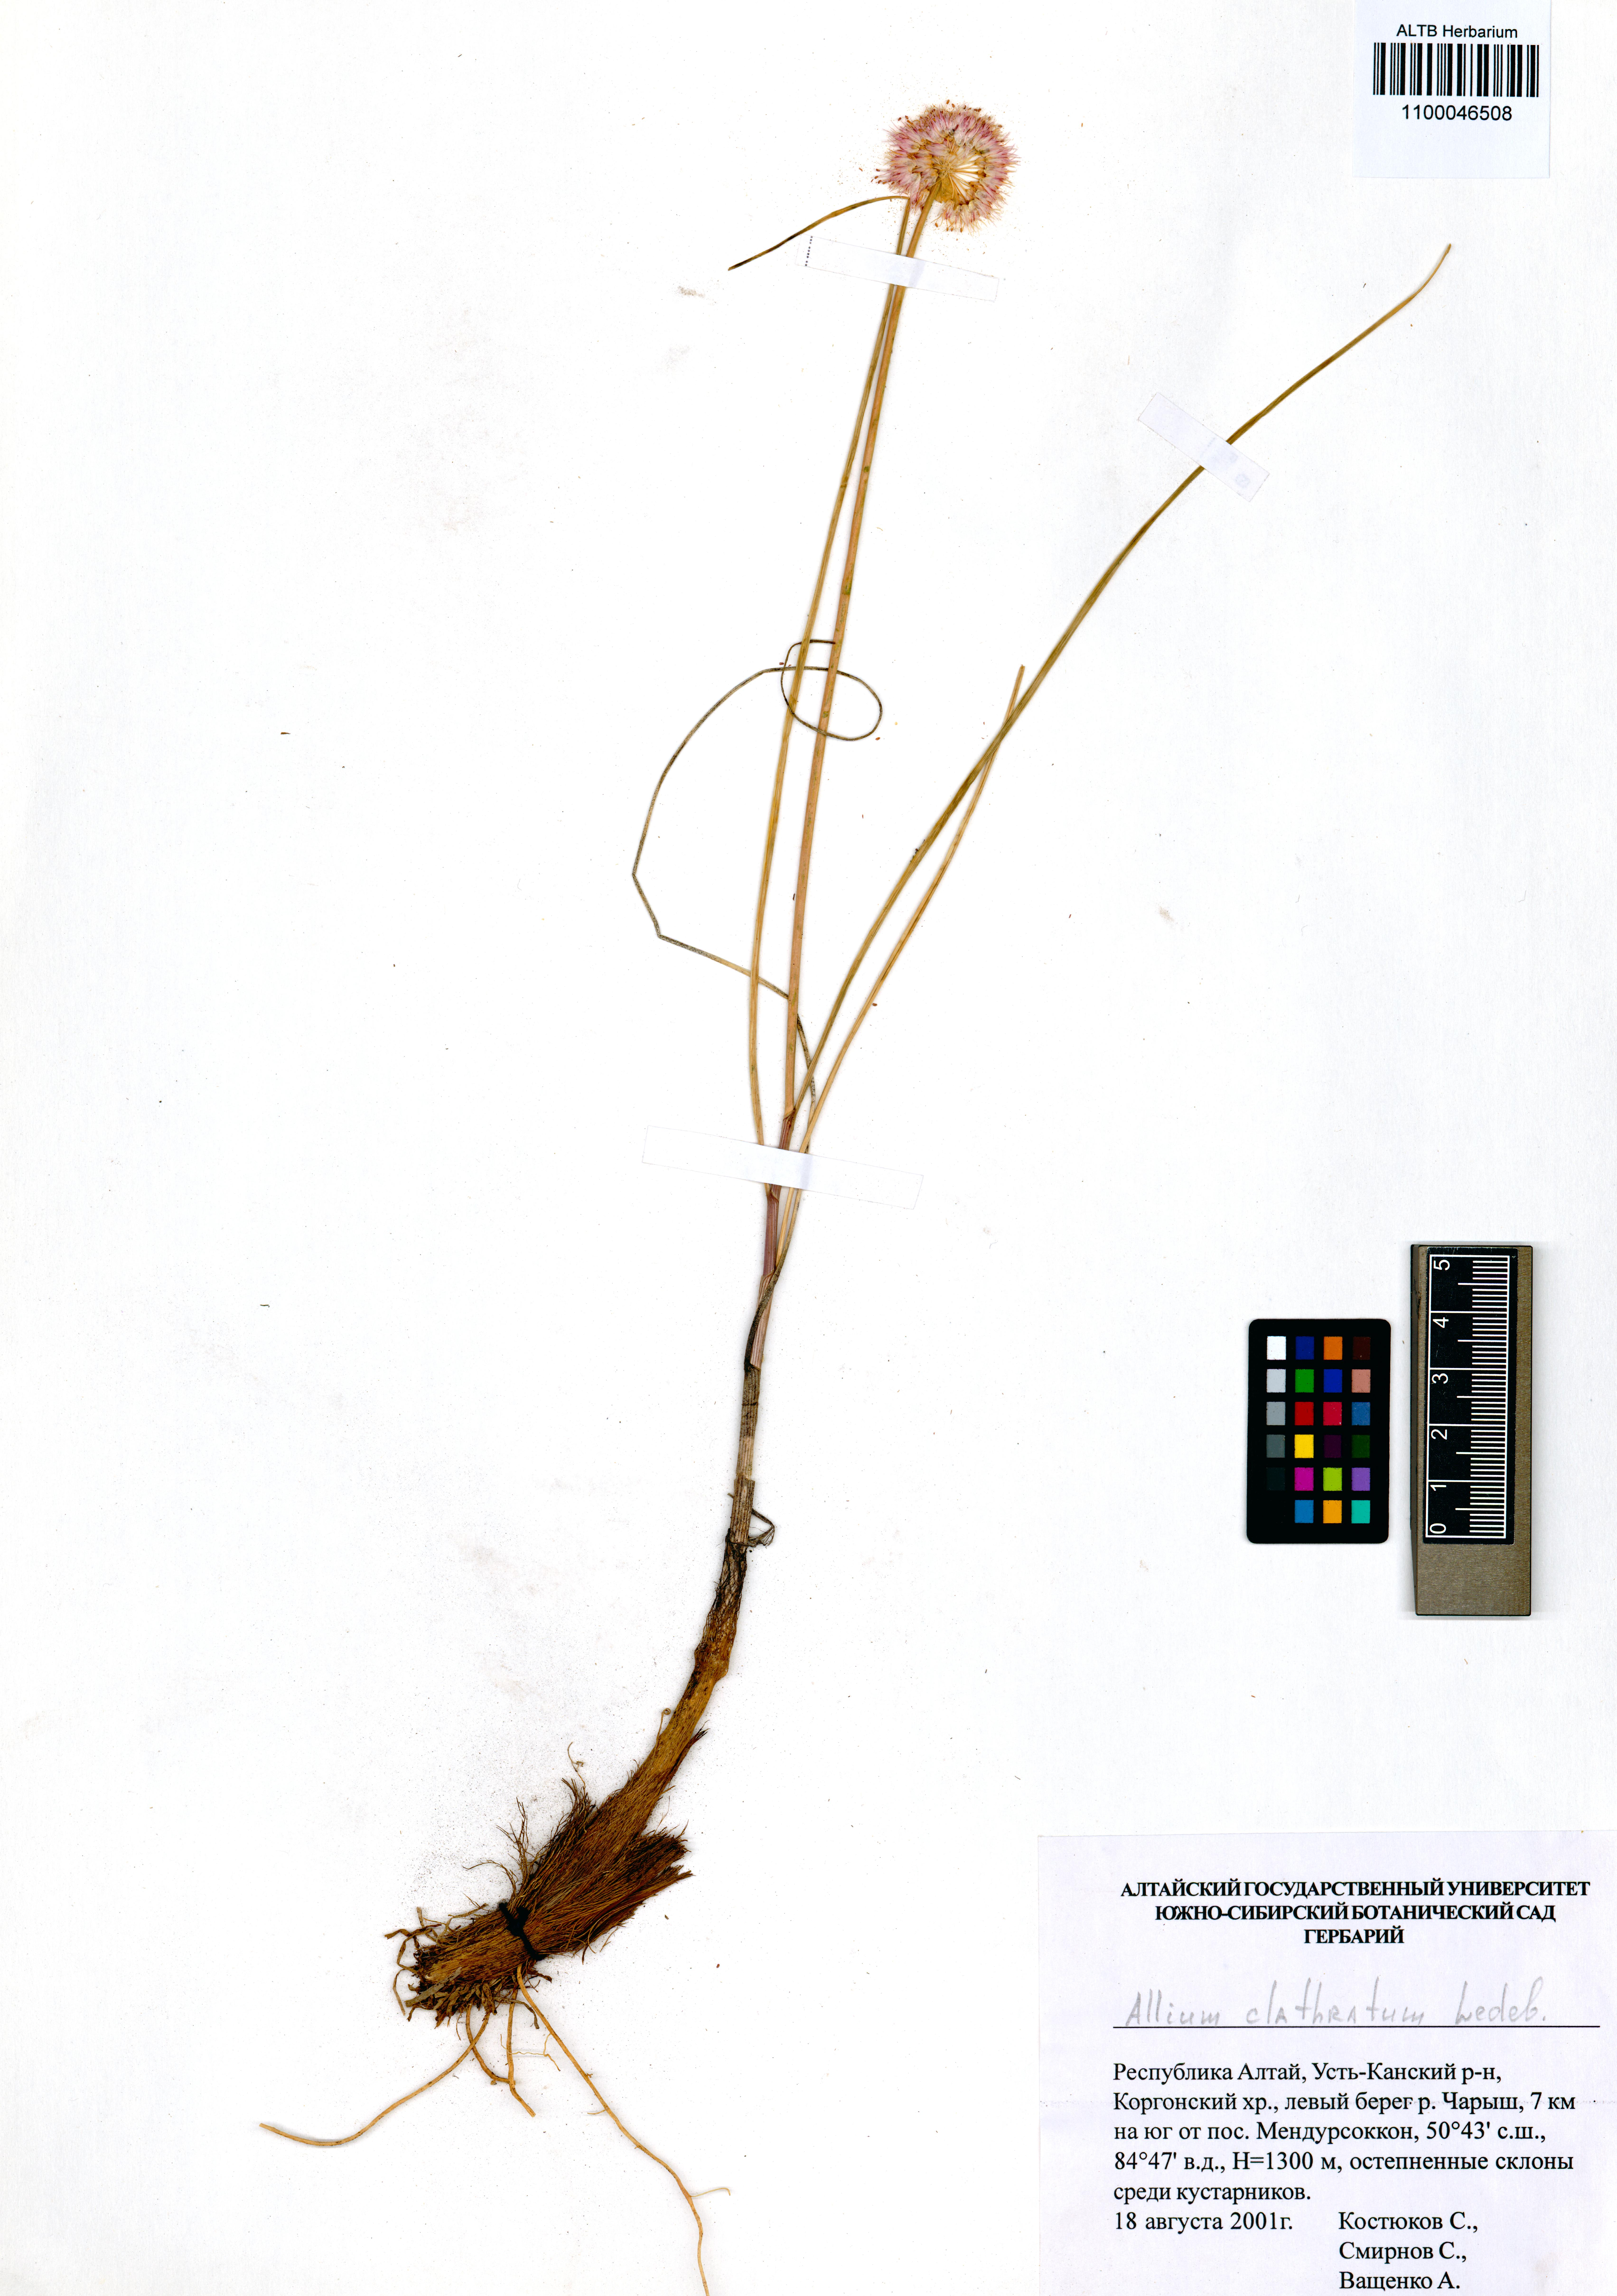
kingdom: Plantae
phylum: Tracheophyta
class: Liliopsida
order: Asparagales
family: Amaryllidaceae
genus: Allium
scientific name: Allium clathratum
